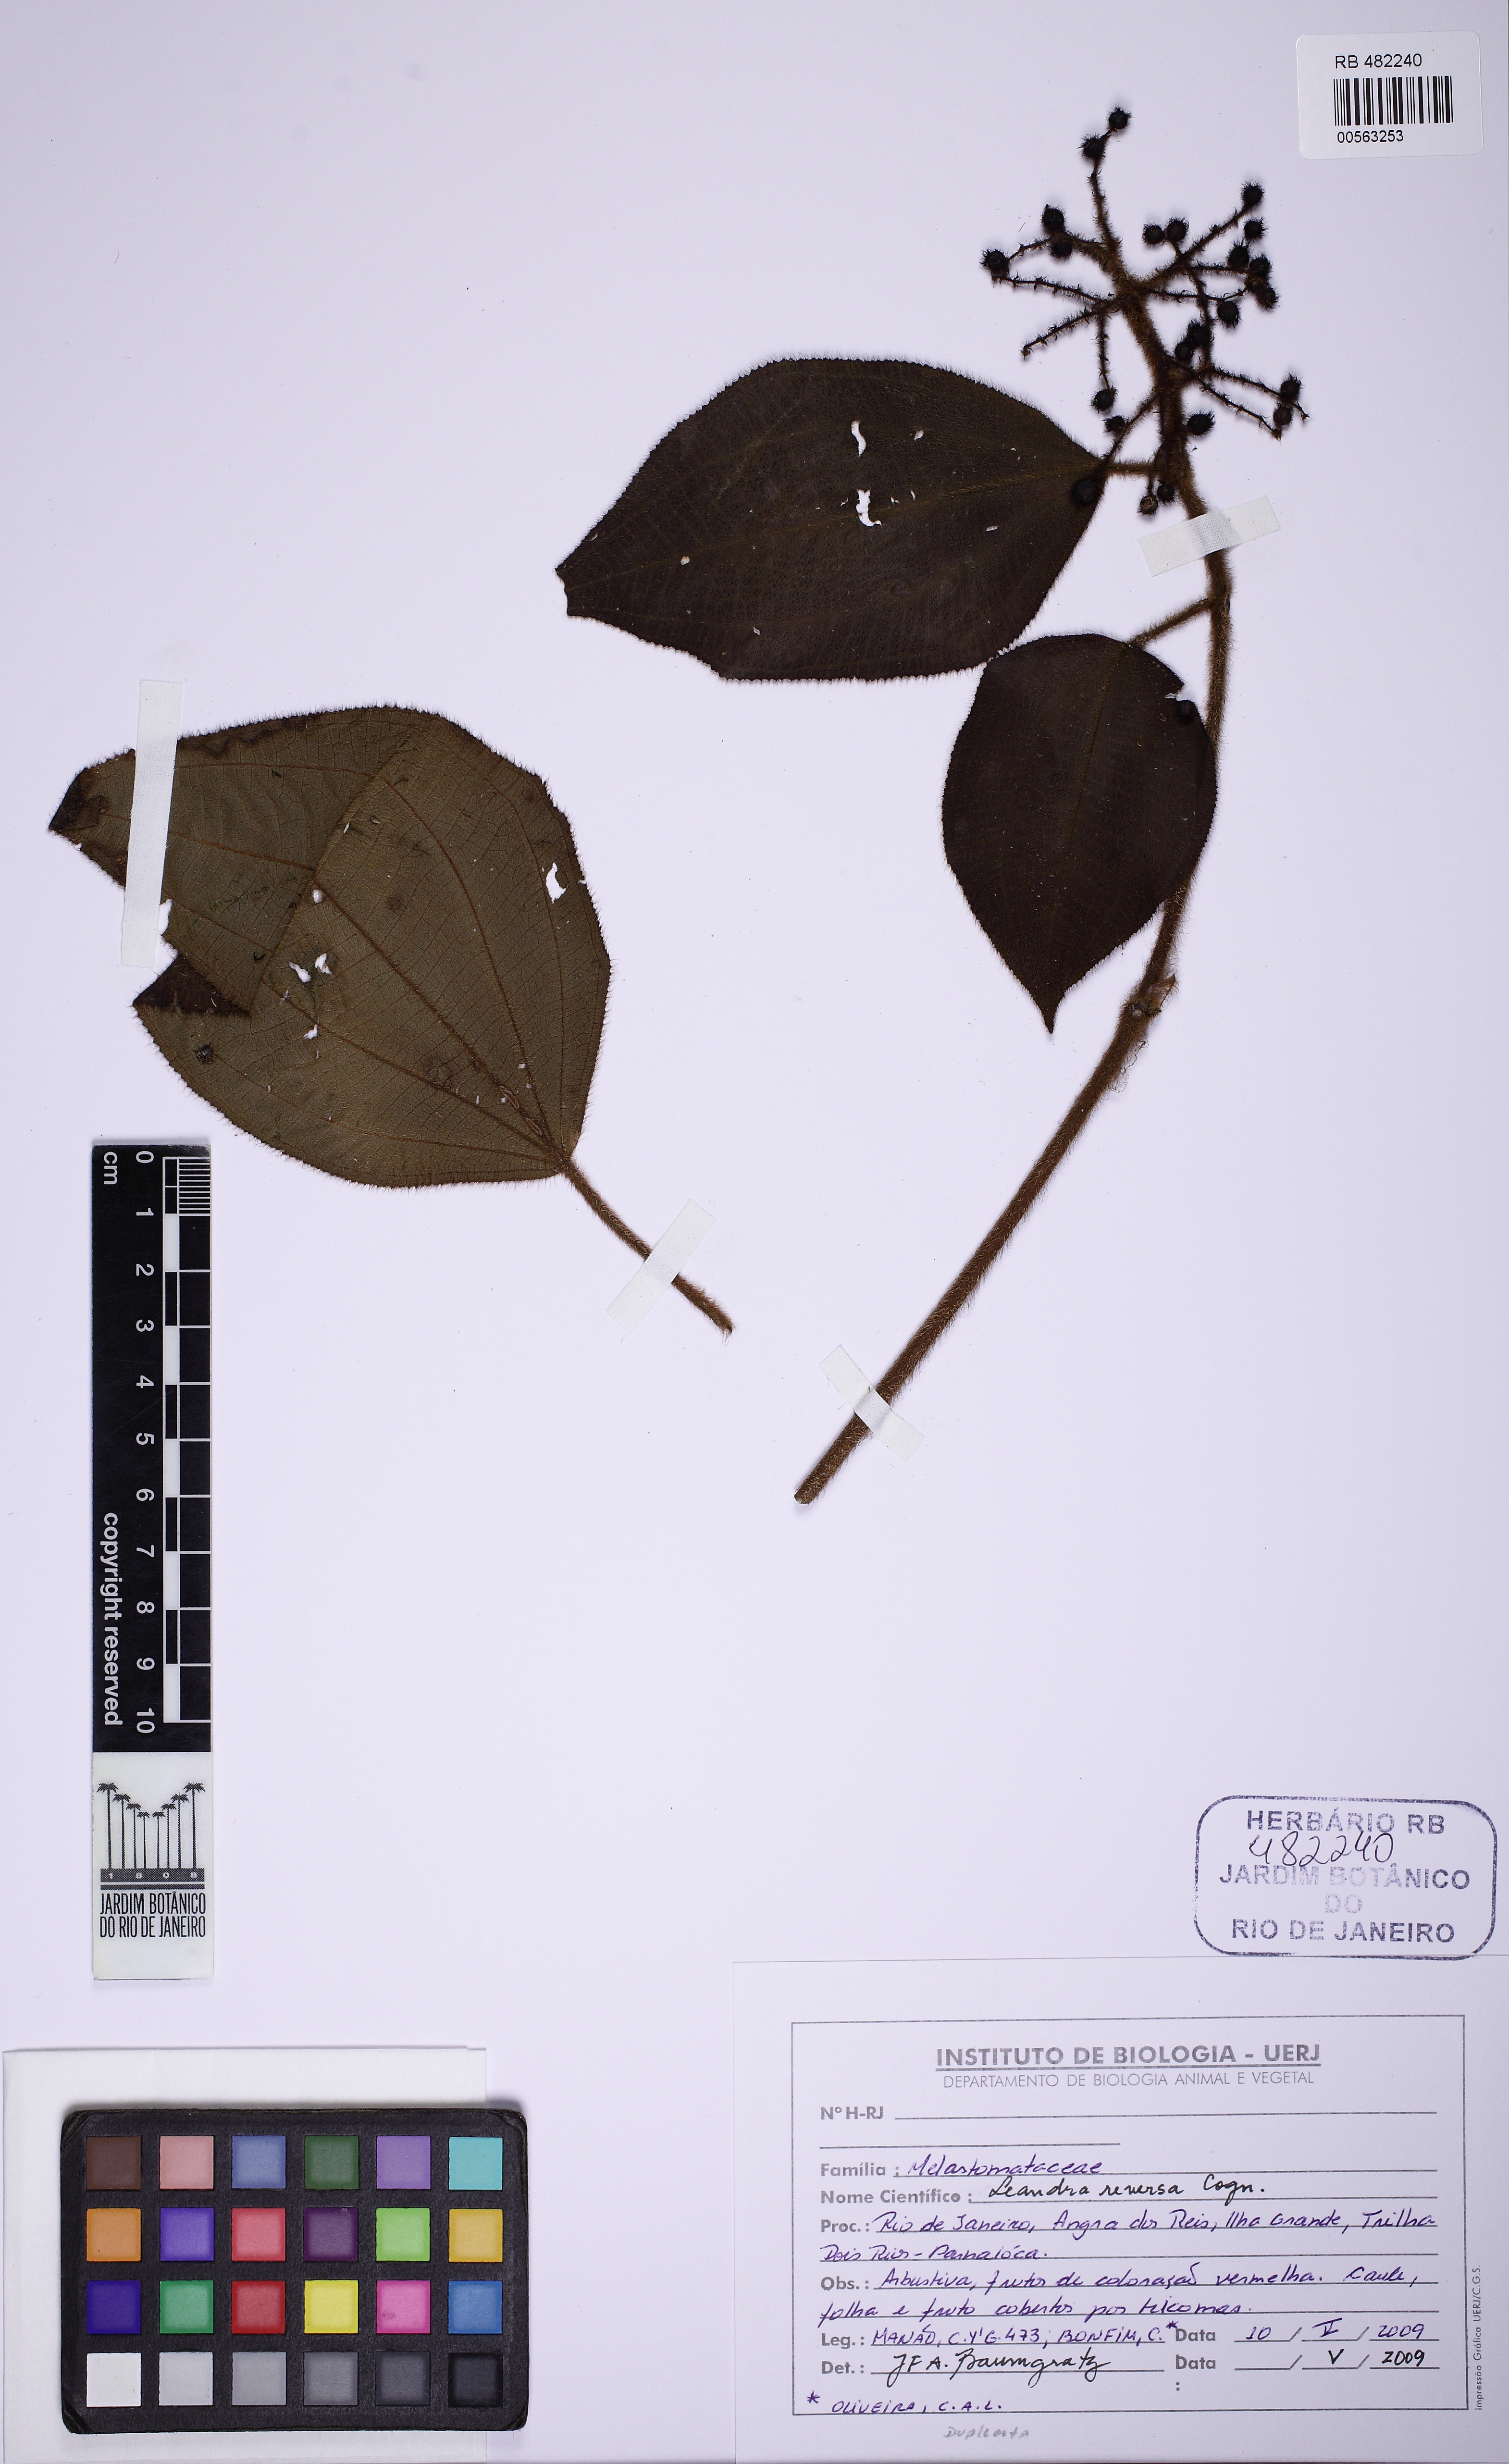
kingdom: Plantae
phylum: Tracheophyta
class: Magnoliopsida
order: Myrtales
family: Melastomataceae
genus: Miconia
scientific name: Miconia reversa
